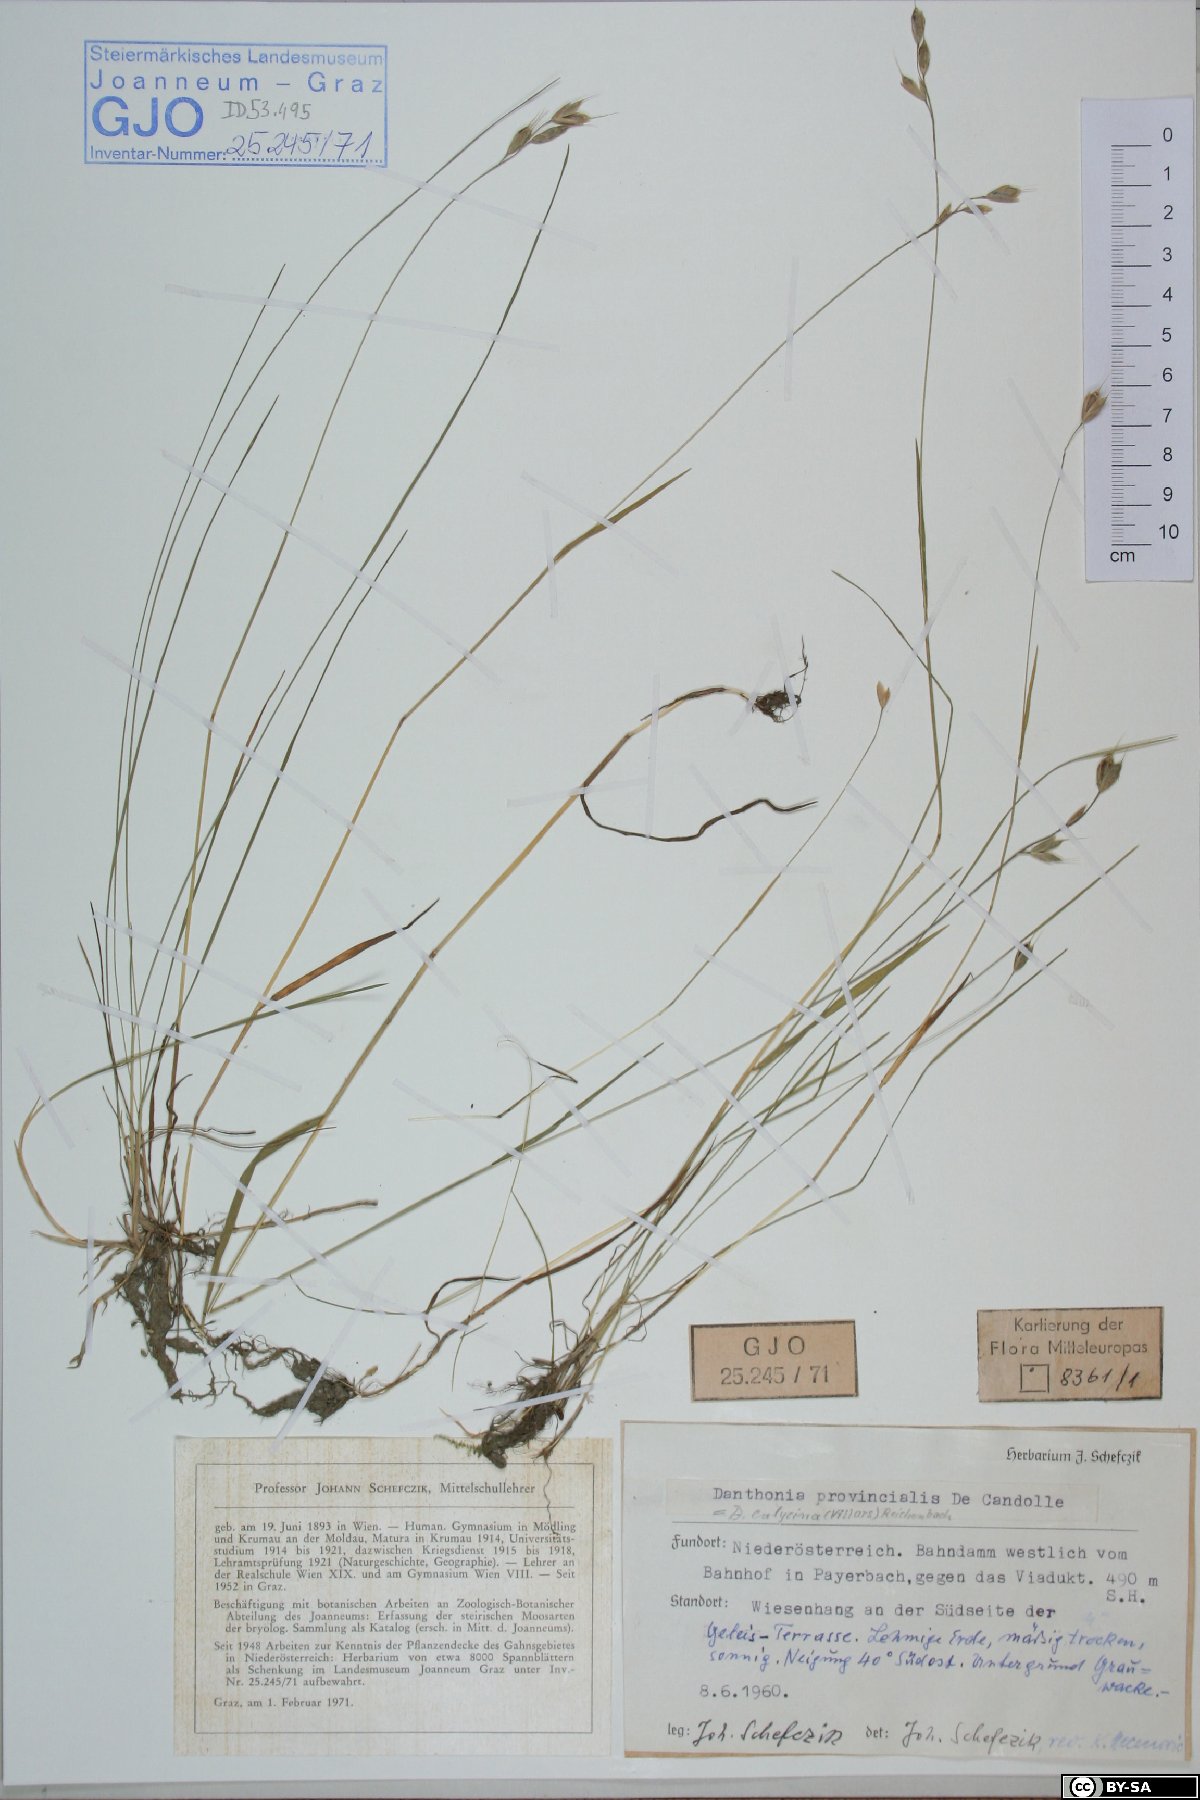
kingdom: Plantae
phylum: Tracheophyta
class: Liliopsida
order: Poales
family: Poaceae
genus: Danthonia
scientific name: Danthonia alpina
